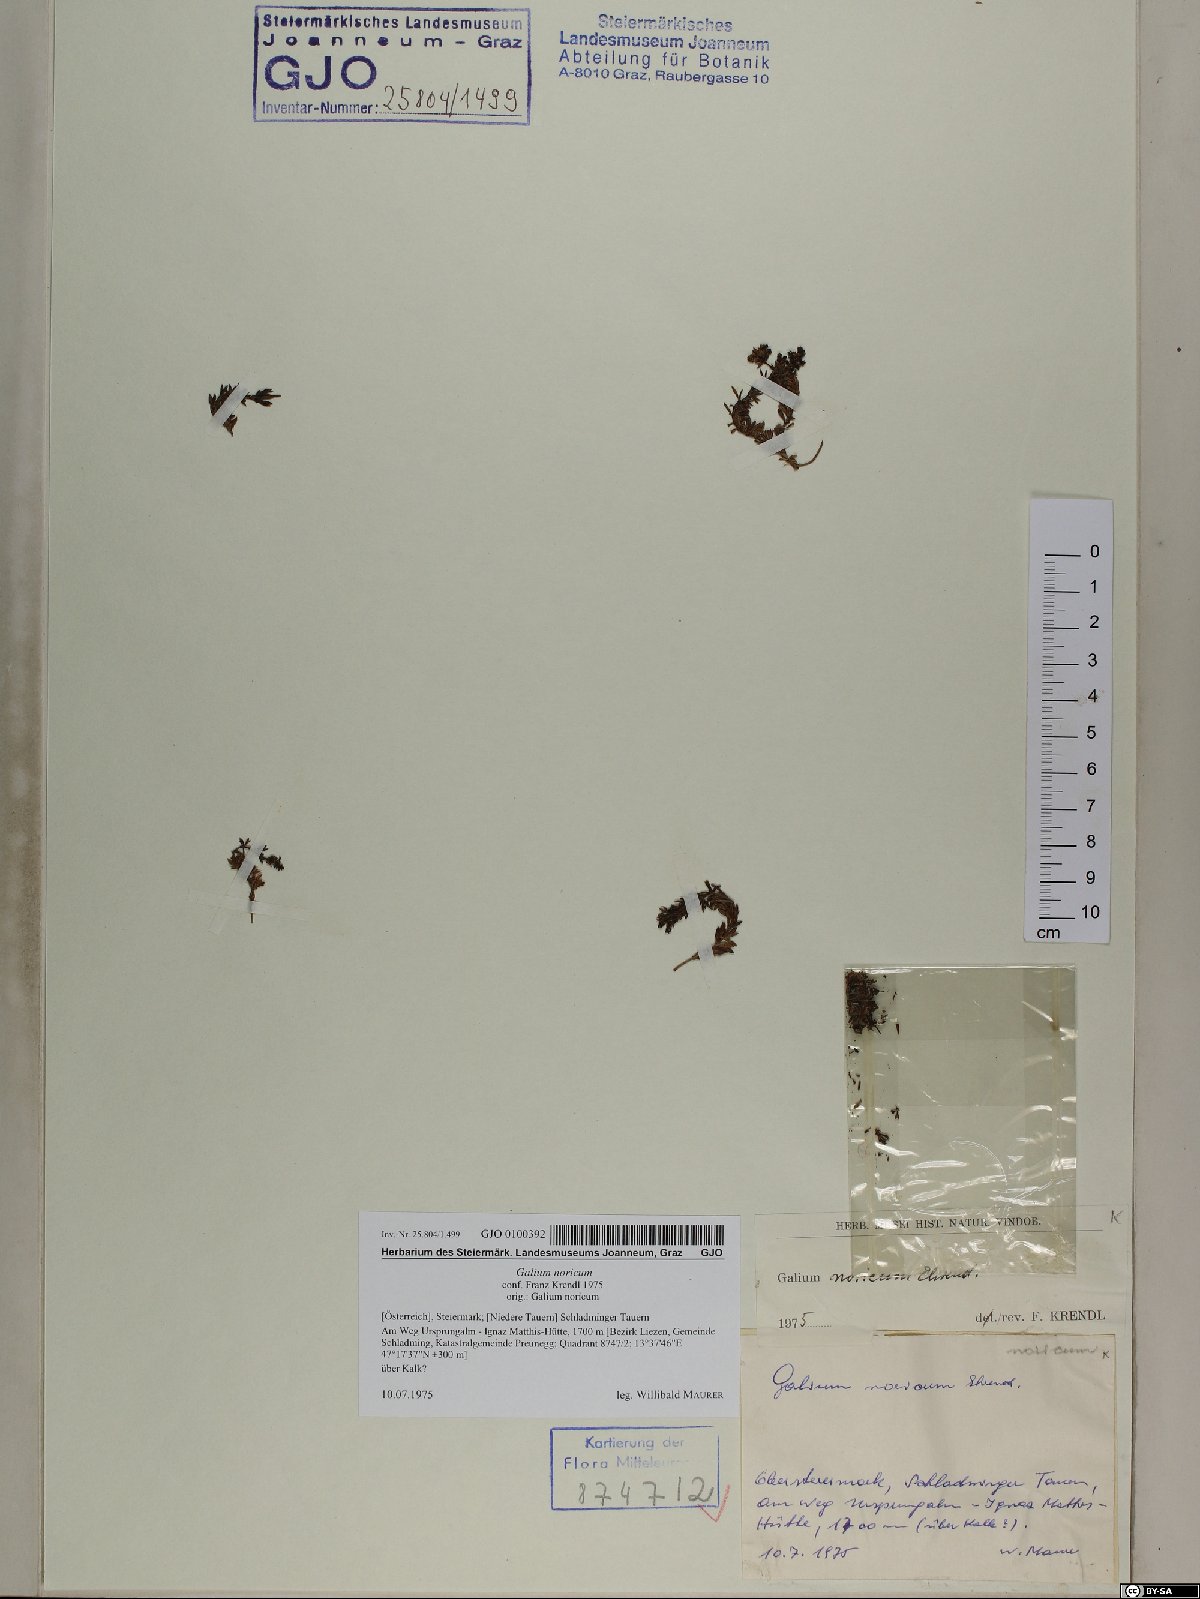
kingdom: Plantae
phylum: Tracheophyta
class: Magnoliopsida
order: Gentianales
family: Rubiaceae
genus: Galium
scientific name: Galium noricum
